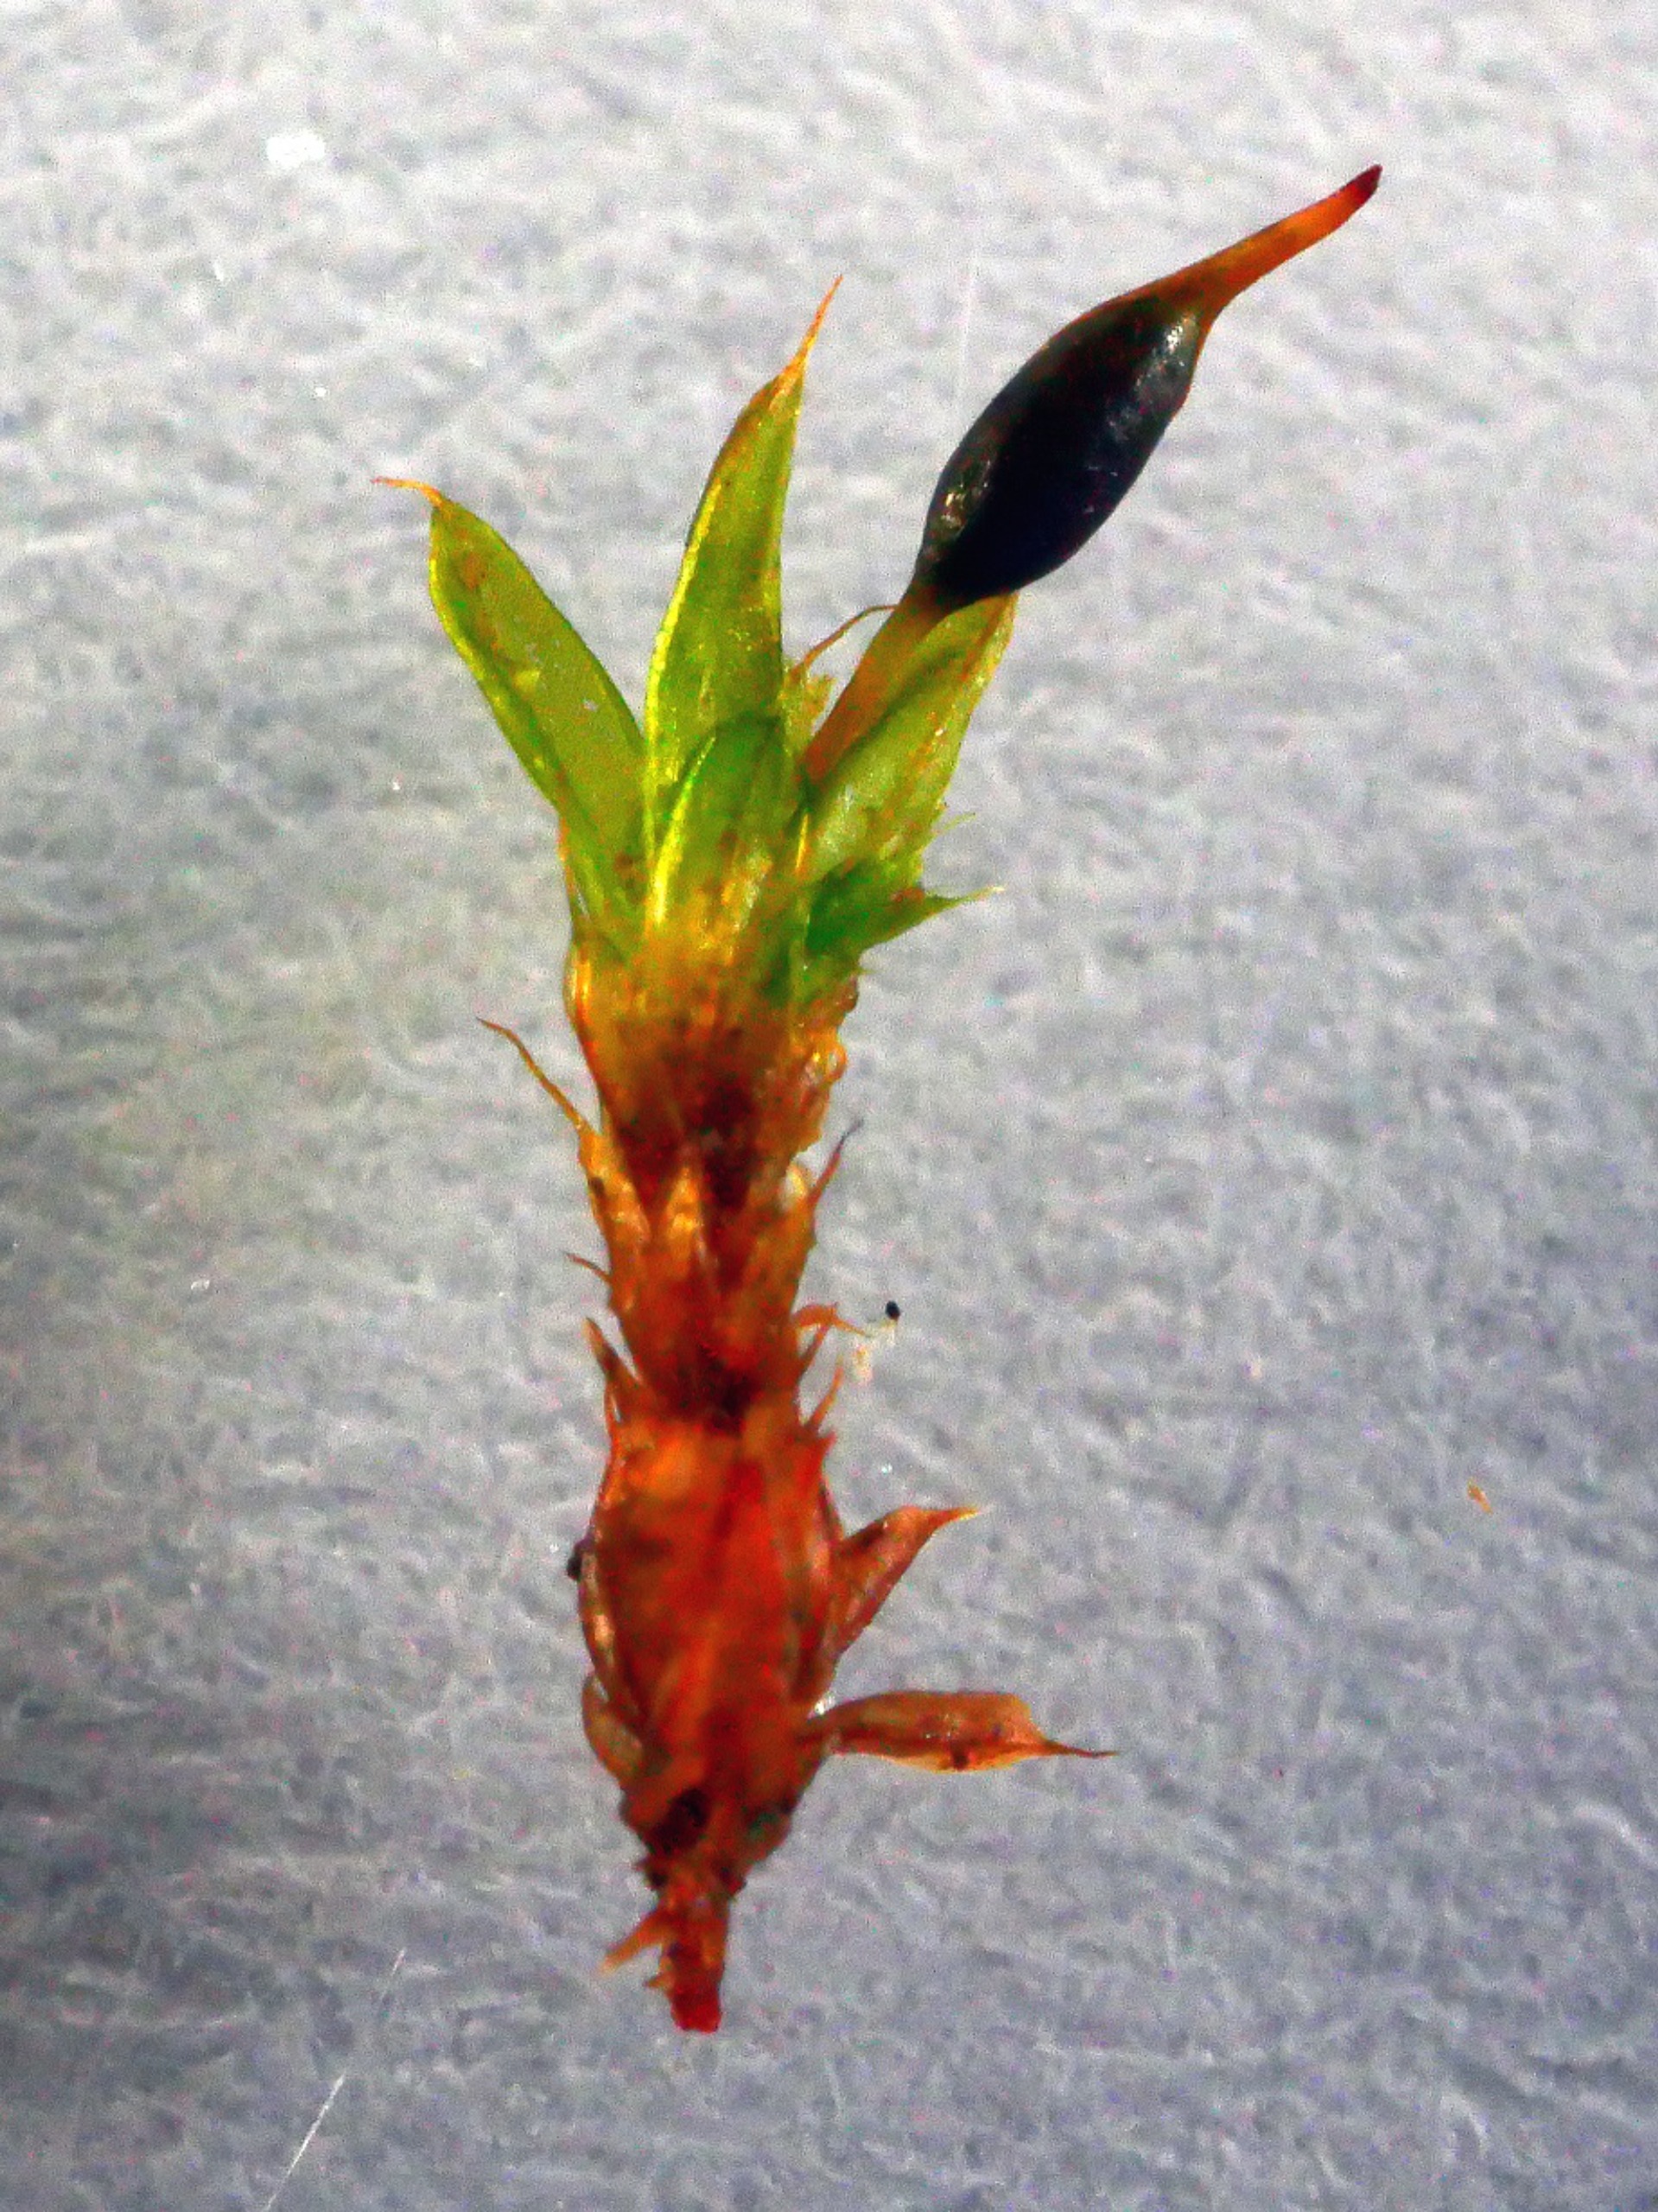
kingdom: Plantae
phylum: Bryophyta
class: Bryopsida
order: Pottiales
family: Pottiaceae
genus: Tortula
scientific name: Tortula protobryoides
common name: Lukket bægermos
